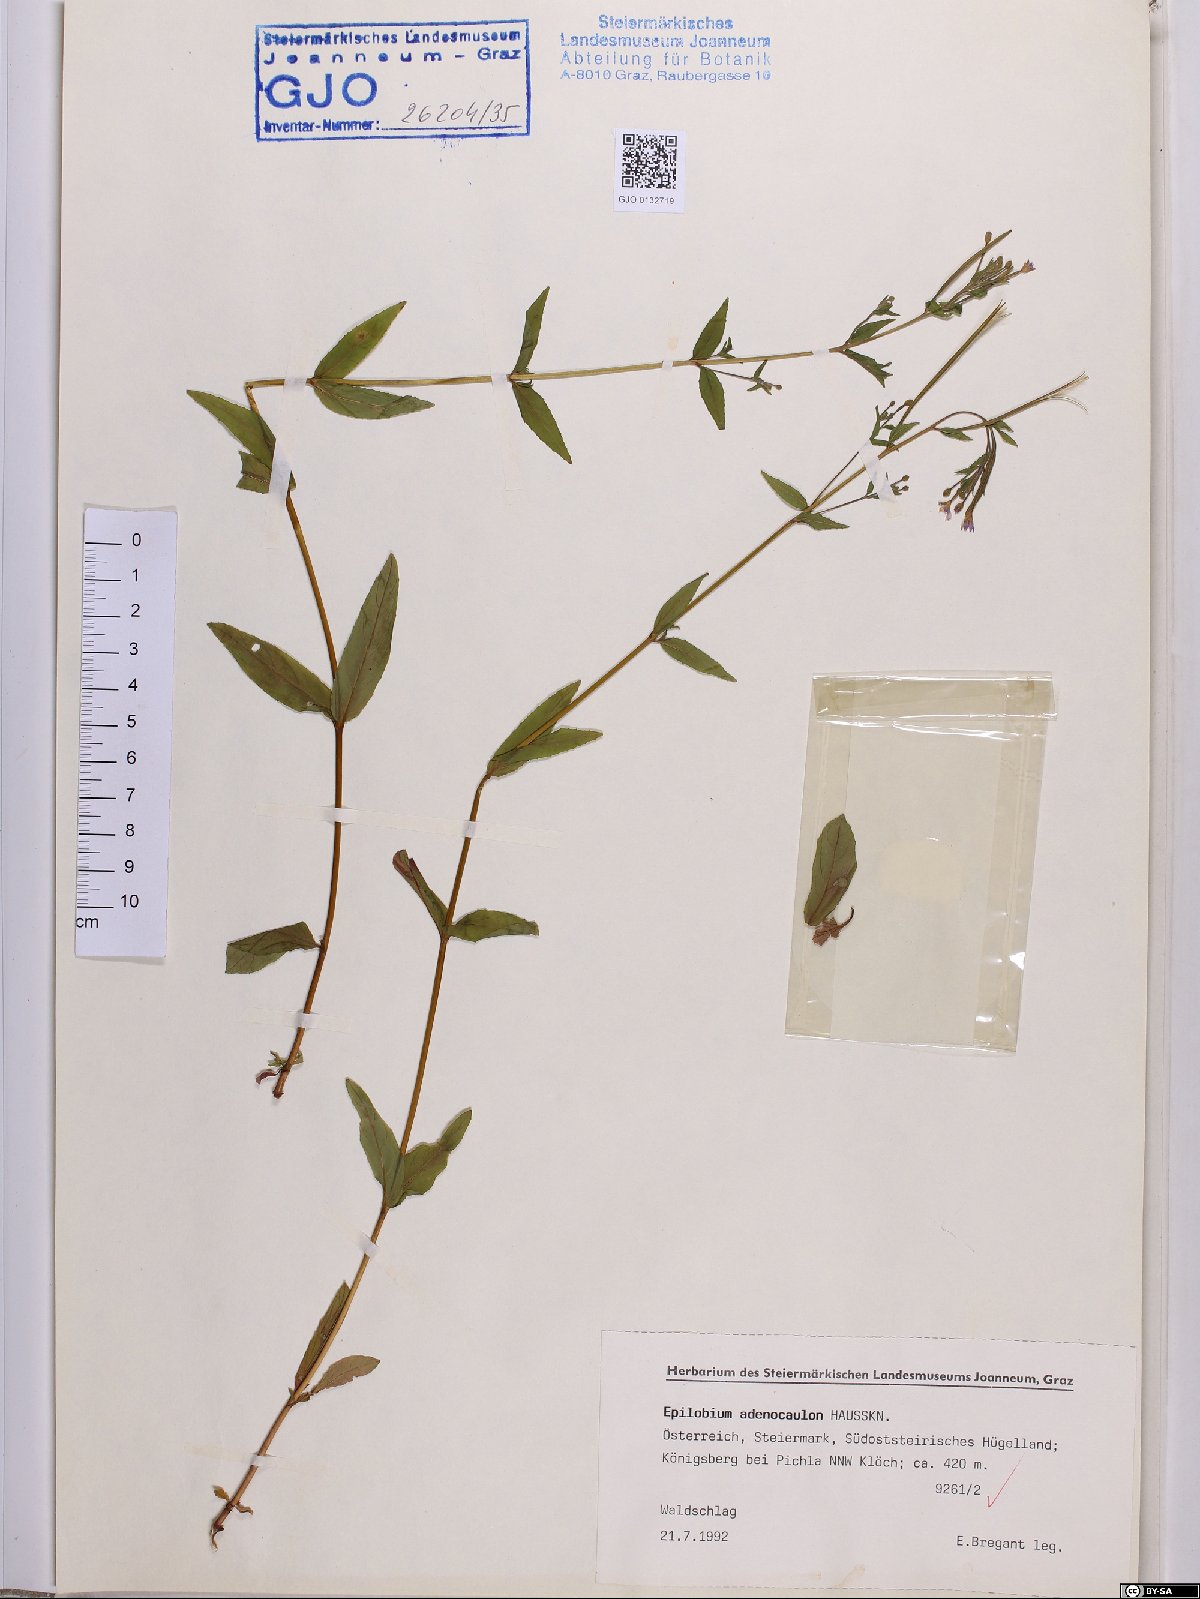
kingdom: Plantae
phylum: Tracheophyta
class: Magnoliopsida
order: Myrtales
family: Onagraceae
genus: Epilobium
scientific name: Epilobium ciliatum
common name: American willowherb
